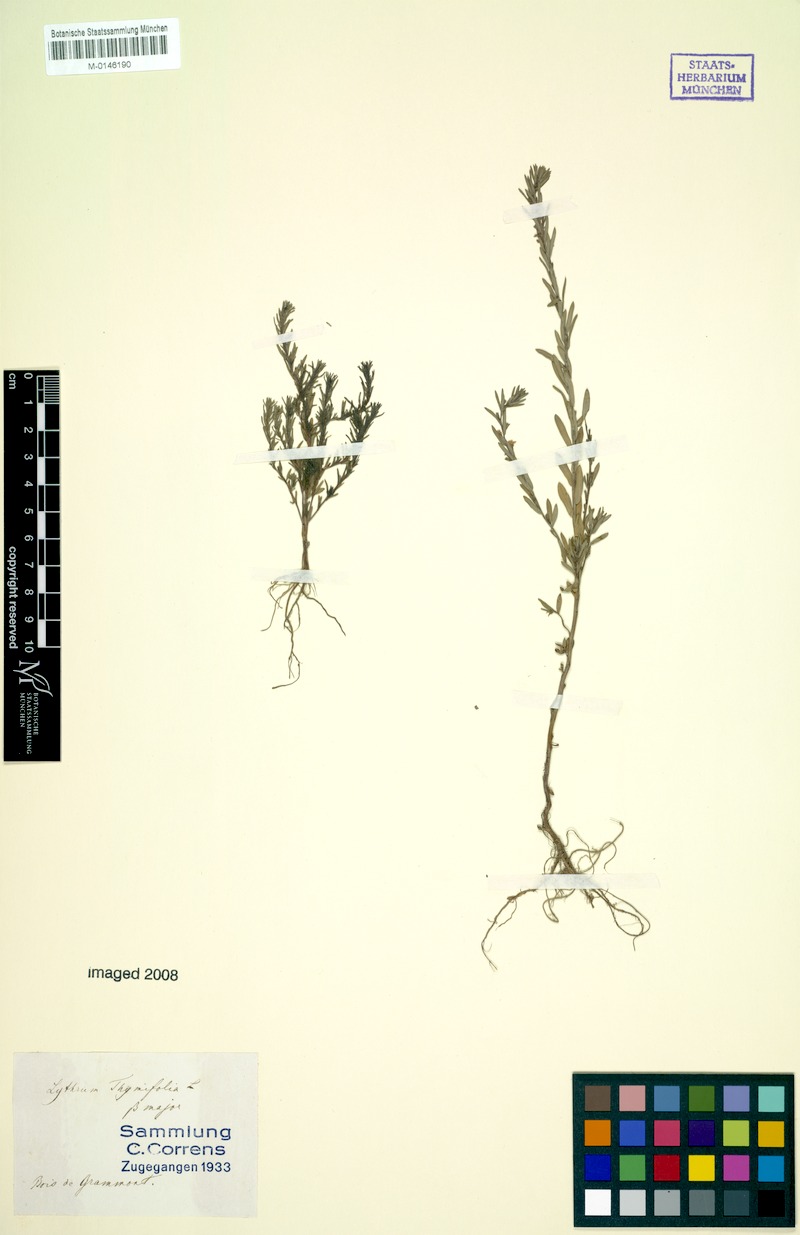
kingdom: Plantae
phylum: Tracheophyta
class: Magnoliopsida
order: Myrtales
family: Lythraceae
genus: Lythrum
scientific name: Lythrum thymifolia
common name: Thymeleaf loosestrife
